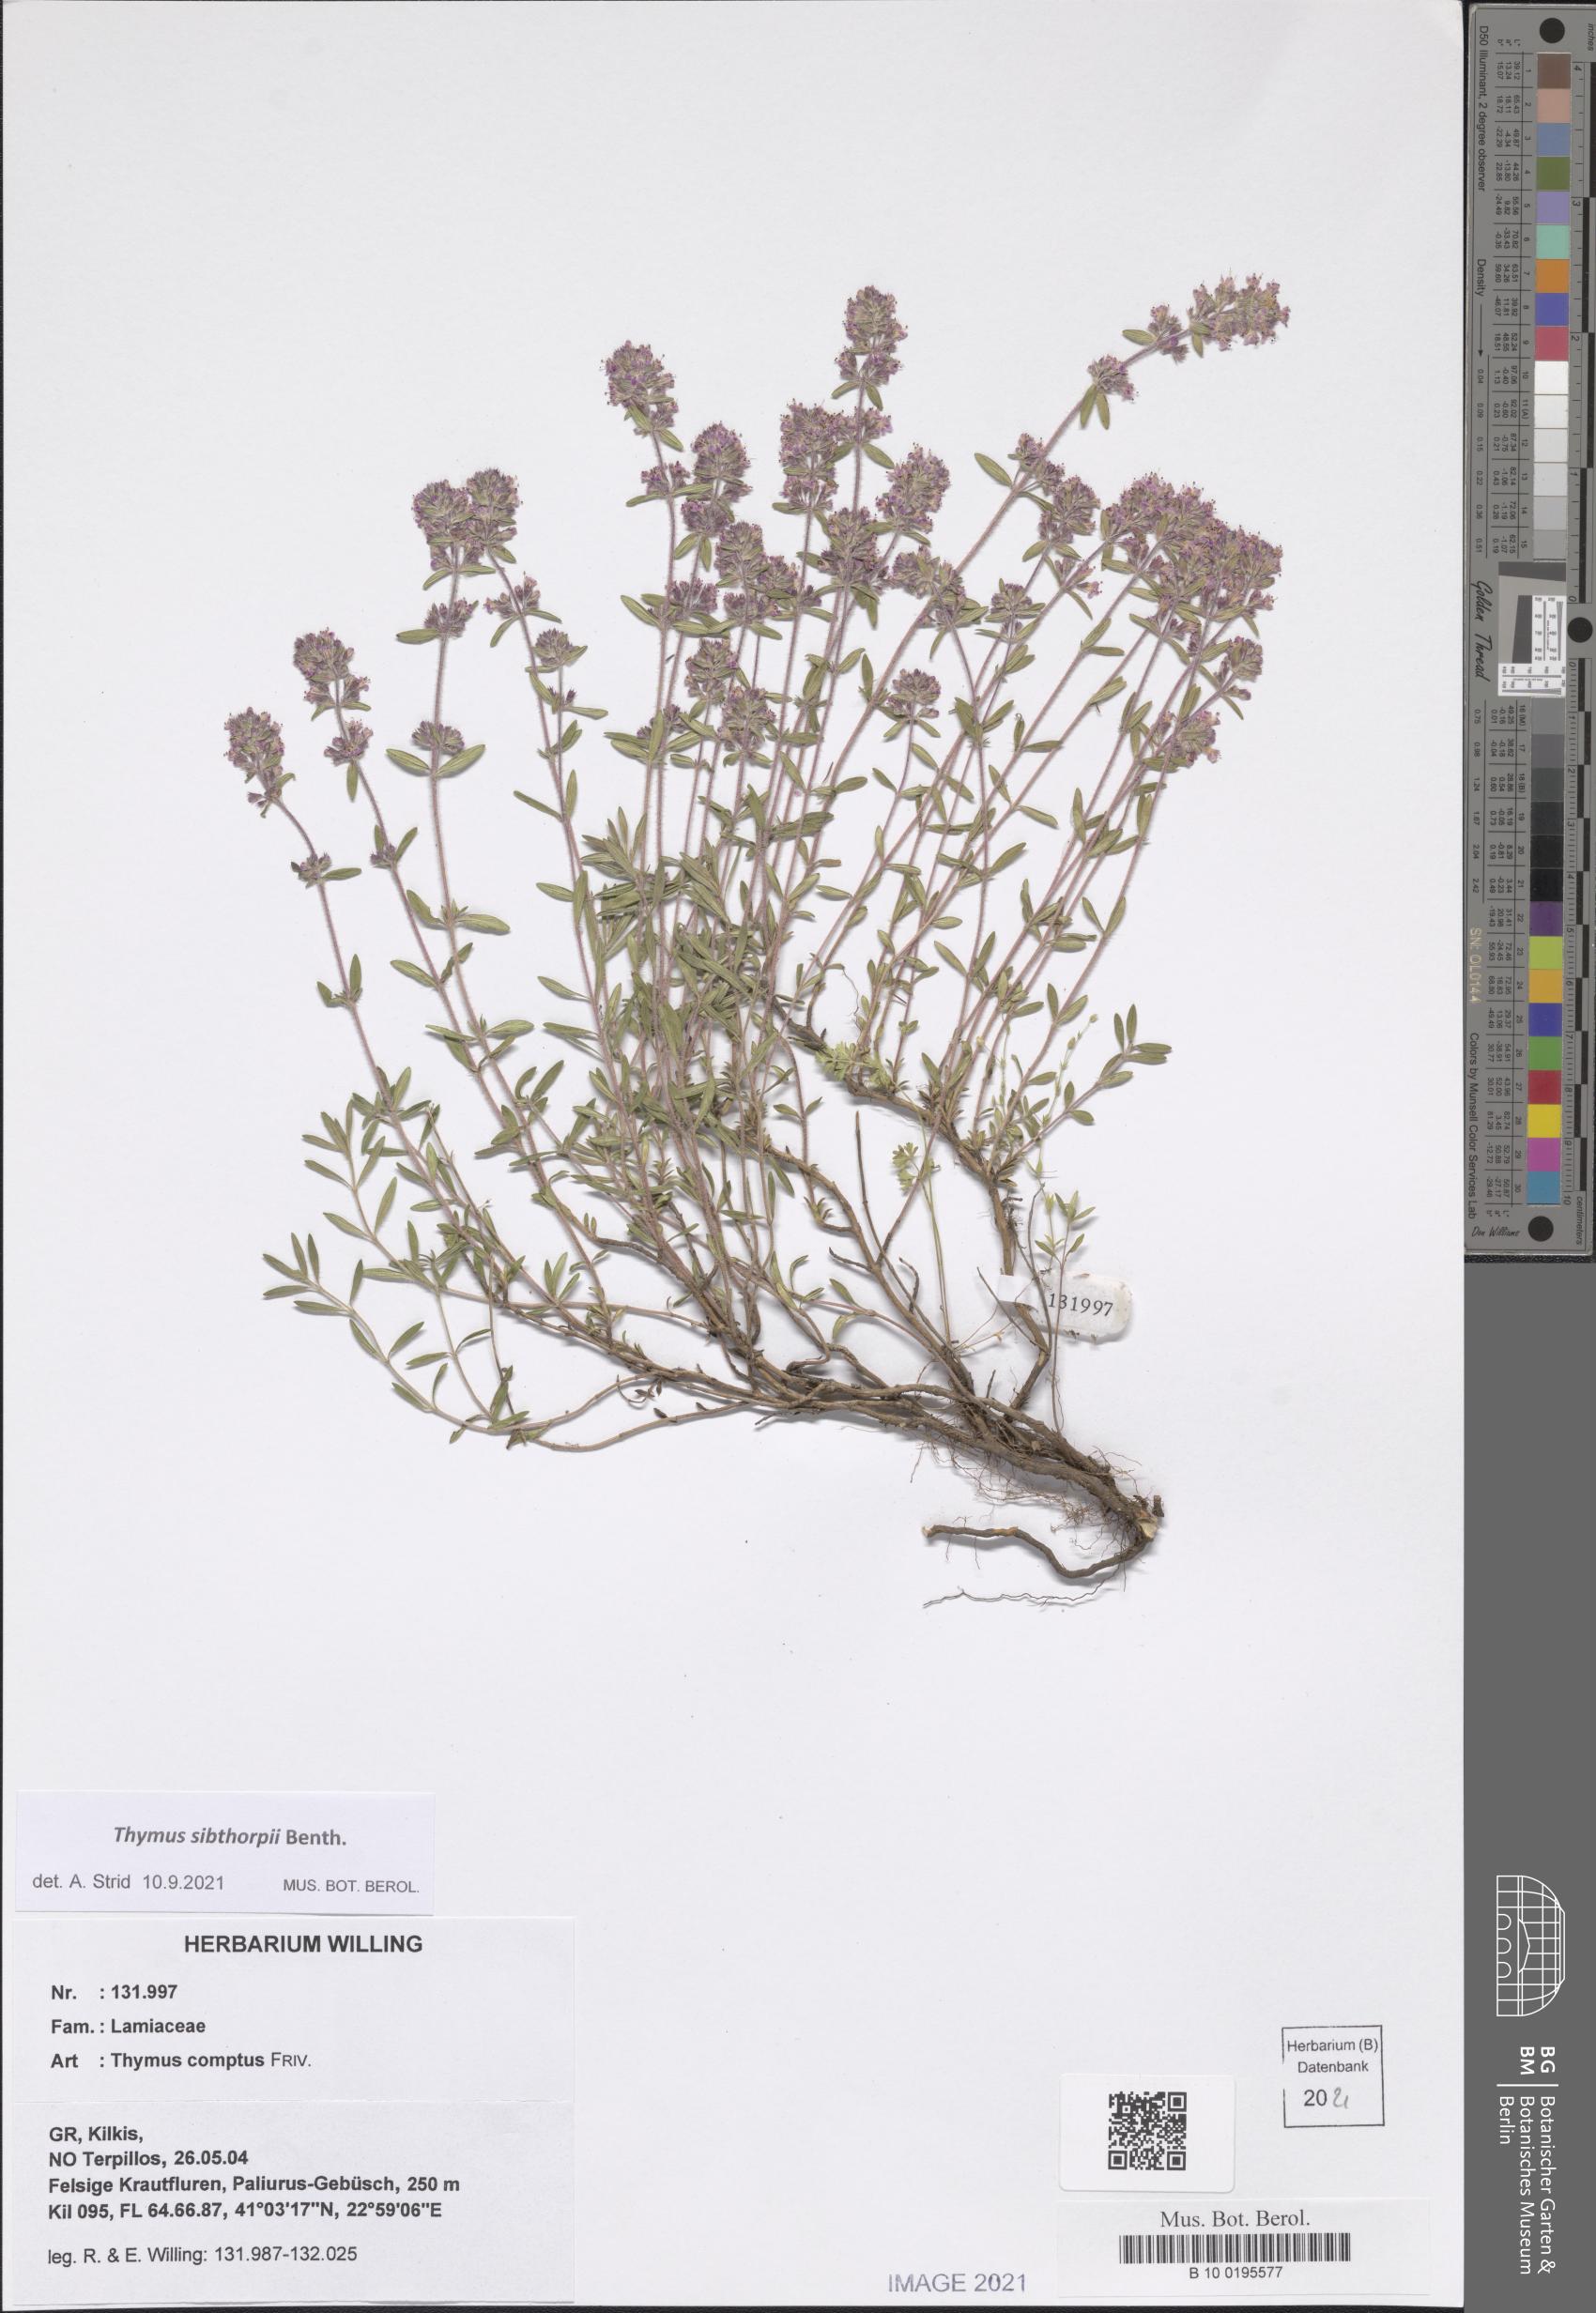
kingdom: Plantae
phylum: Tracheophyta
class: Magnoliopsida
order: Lamiales
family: Lamiaceae
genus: Thymus
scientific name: Thymus sibthorpii
